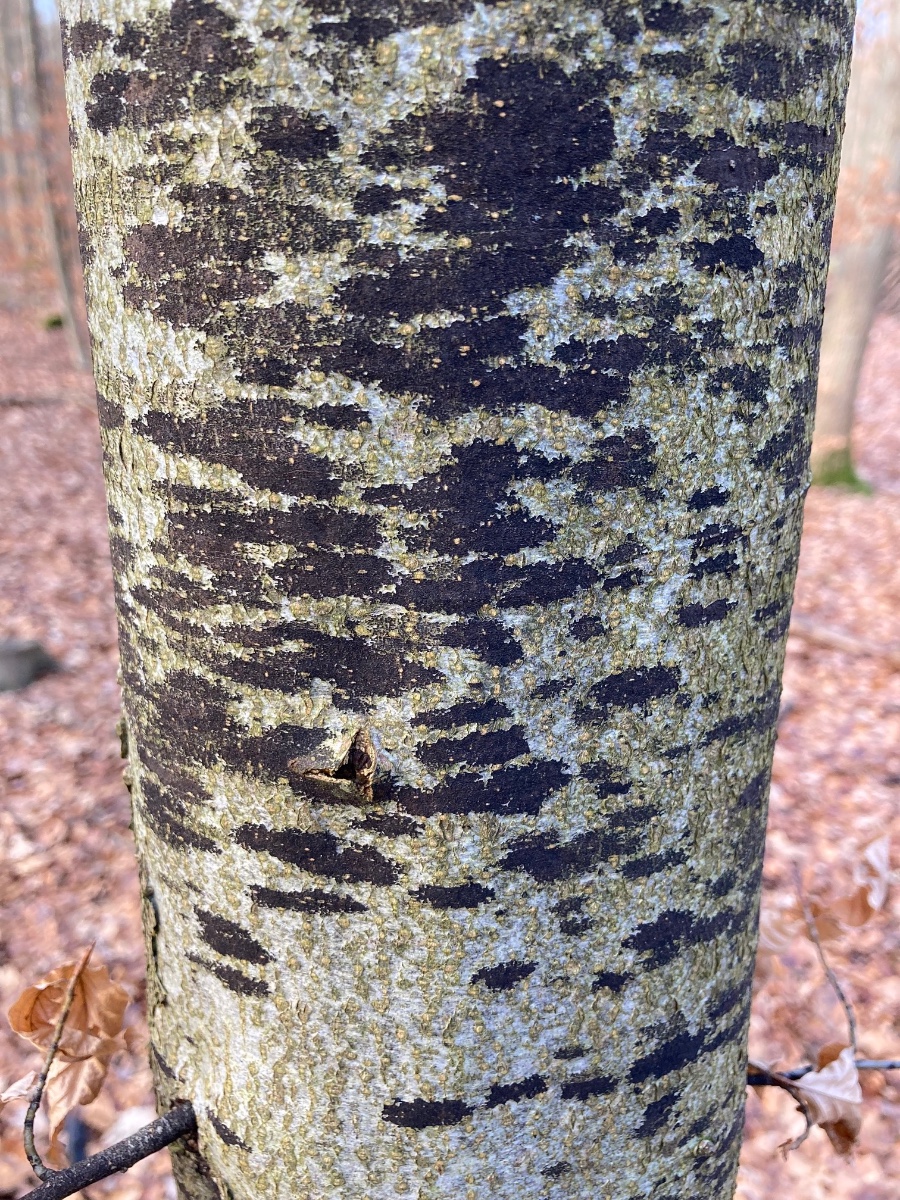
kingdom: Fungi
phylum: Ascomycota
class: Leotiomycetes
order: Rhytismatales
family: Ascodichaenaceae
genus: Ascodichaena
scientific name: Ascodichaena rugosa
